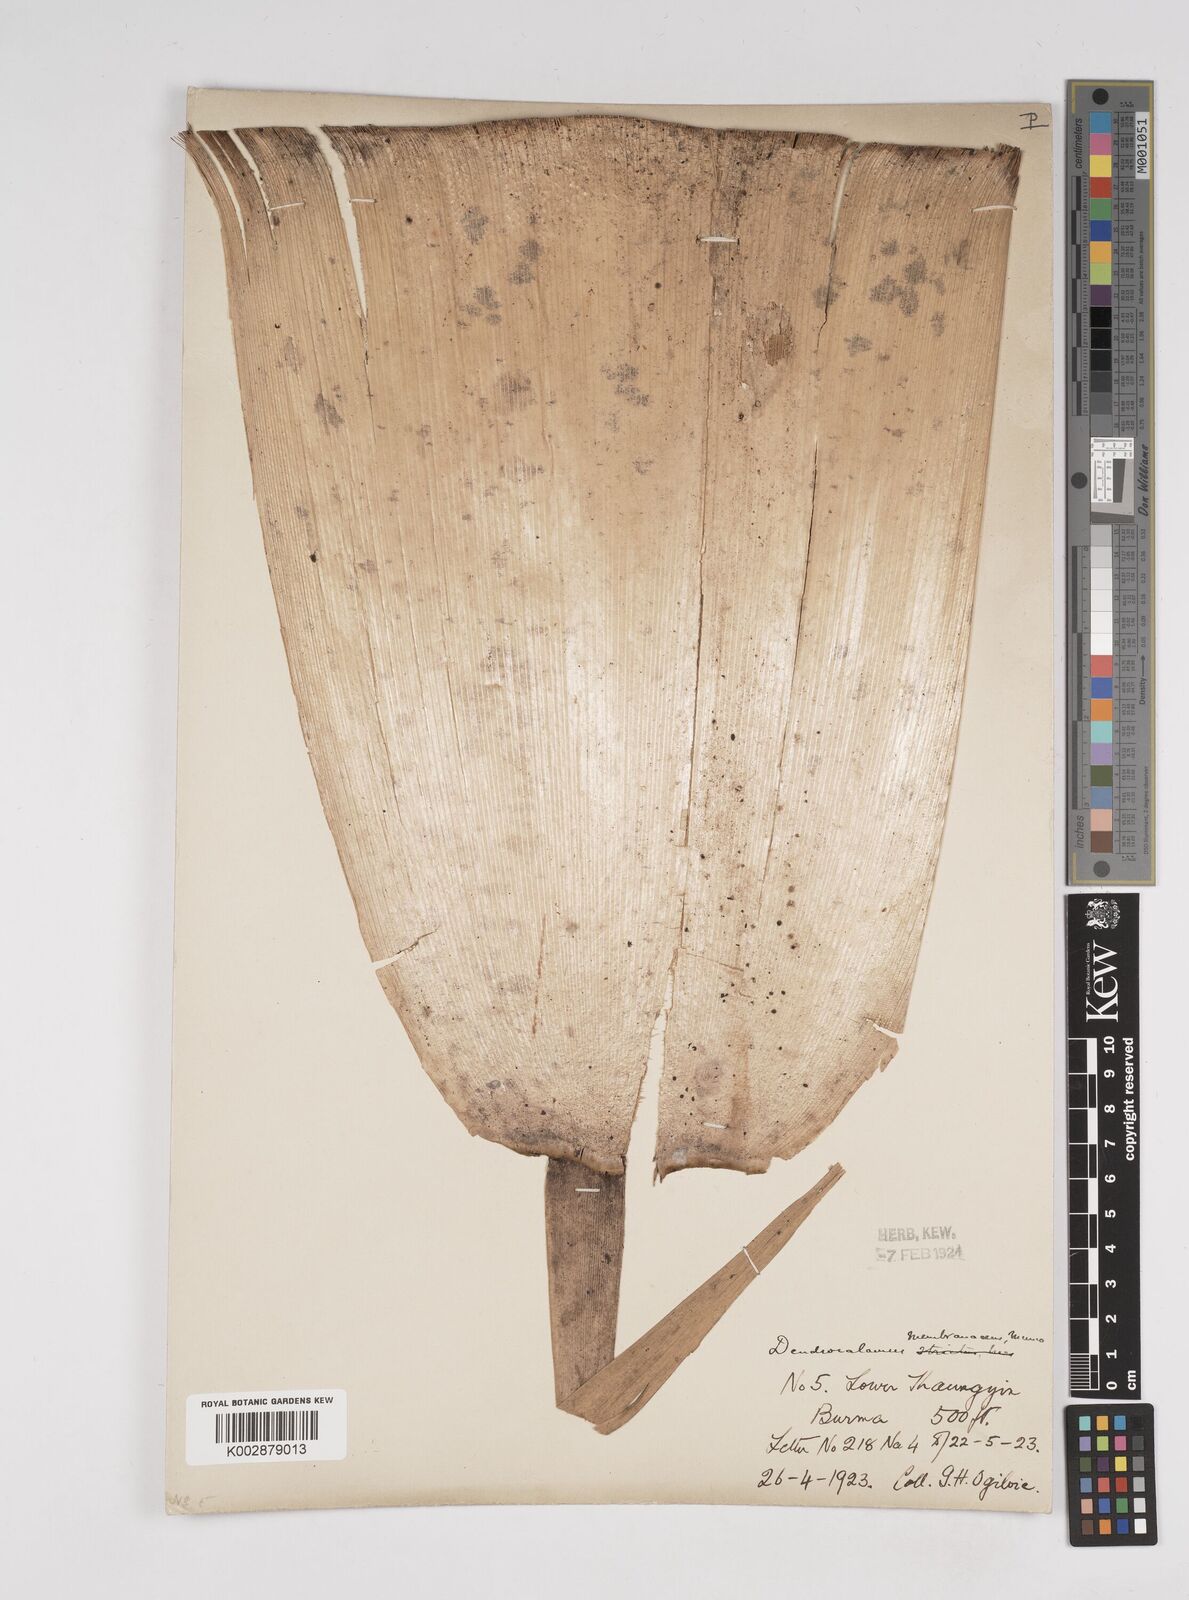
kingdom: Plantae
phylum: Tracheophyta
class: Liliopsida
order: Poales
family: Poaceae
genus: Dendrocalamus
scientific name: Dendrocalamus membranaceus
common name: White bamboo
